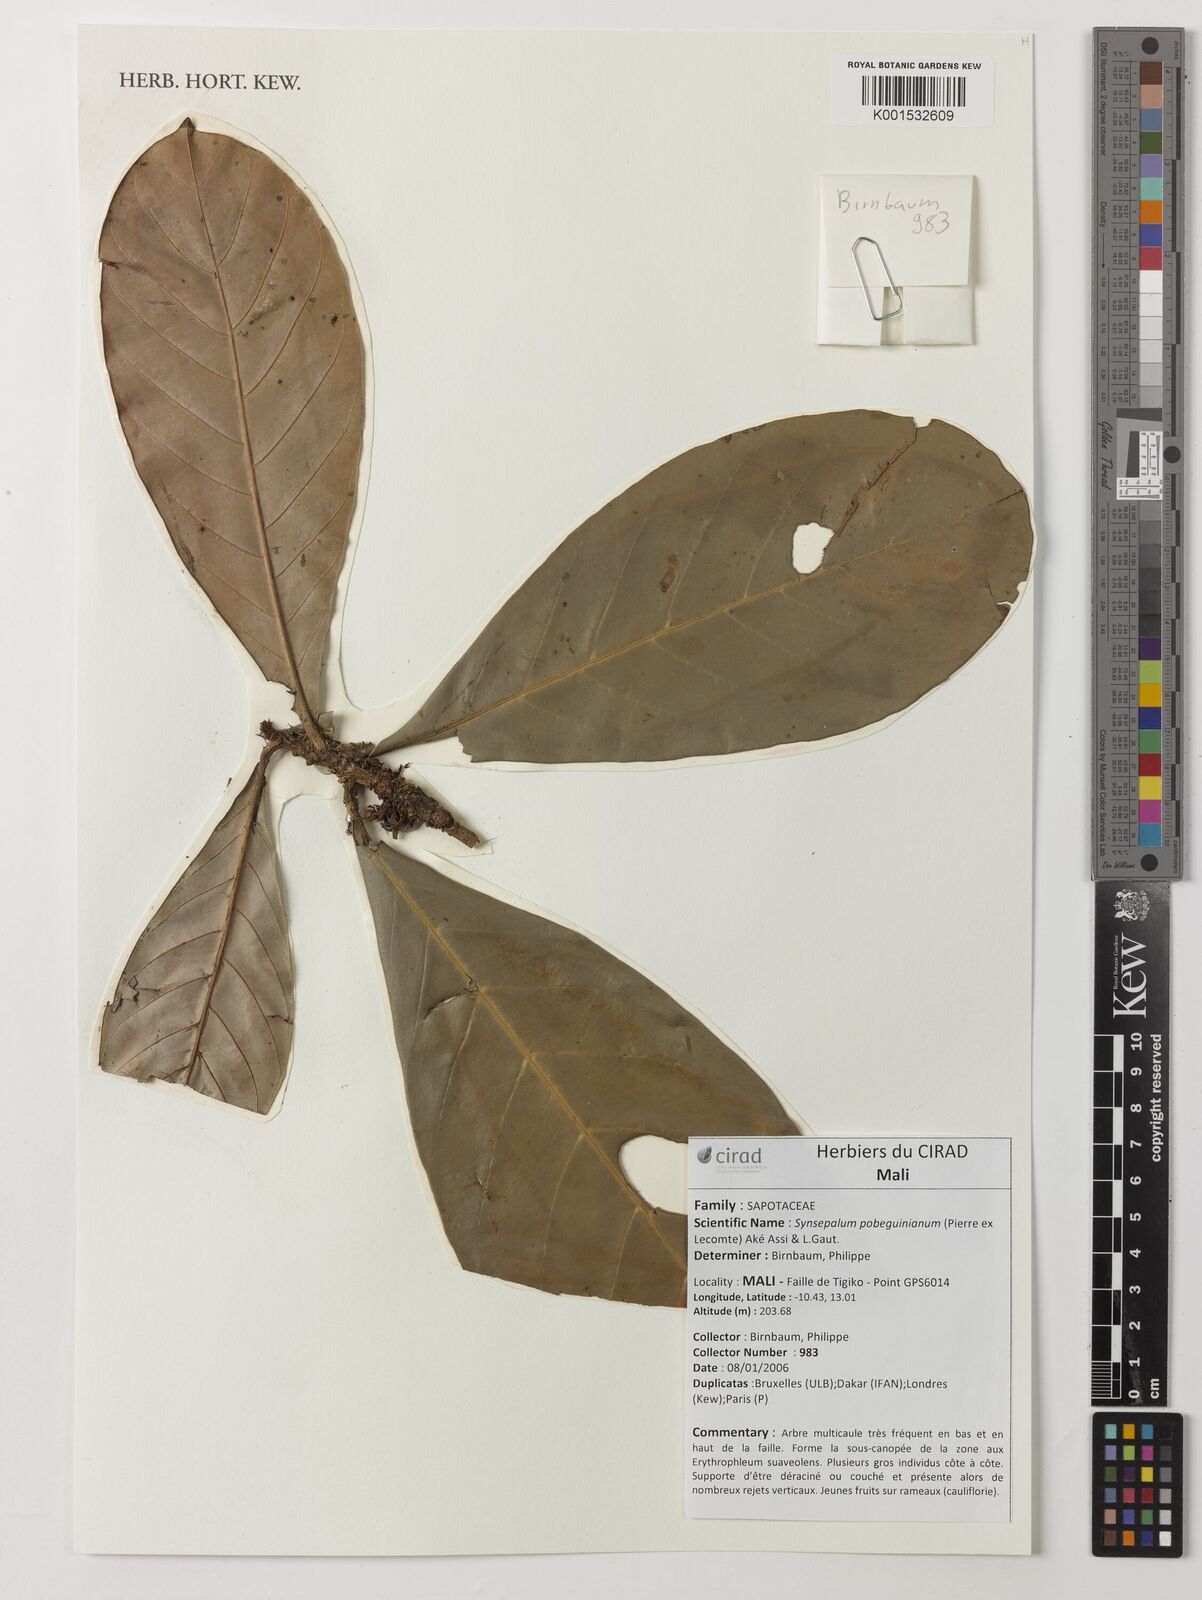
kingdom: Plantae
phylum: Tracheophyta
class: Magnoliopsida
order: Ericales
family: Sapotaceae
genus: Synsepalum
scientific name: Synsepalum pobeguinianum
